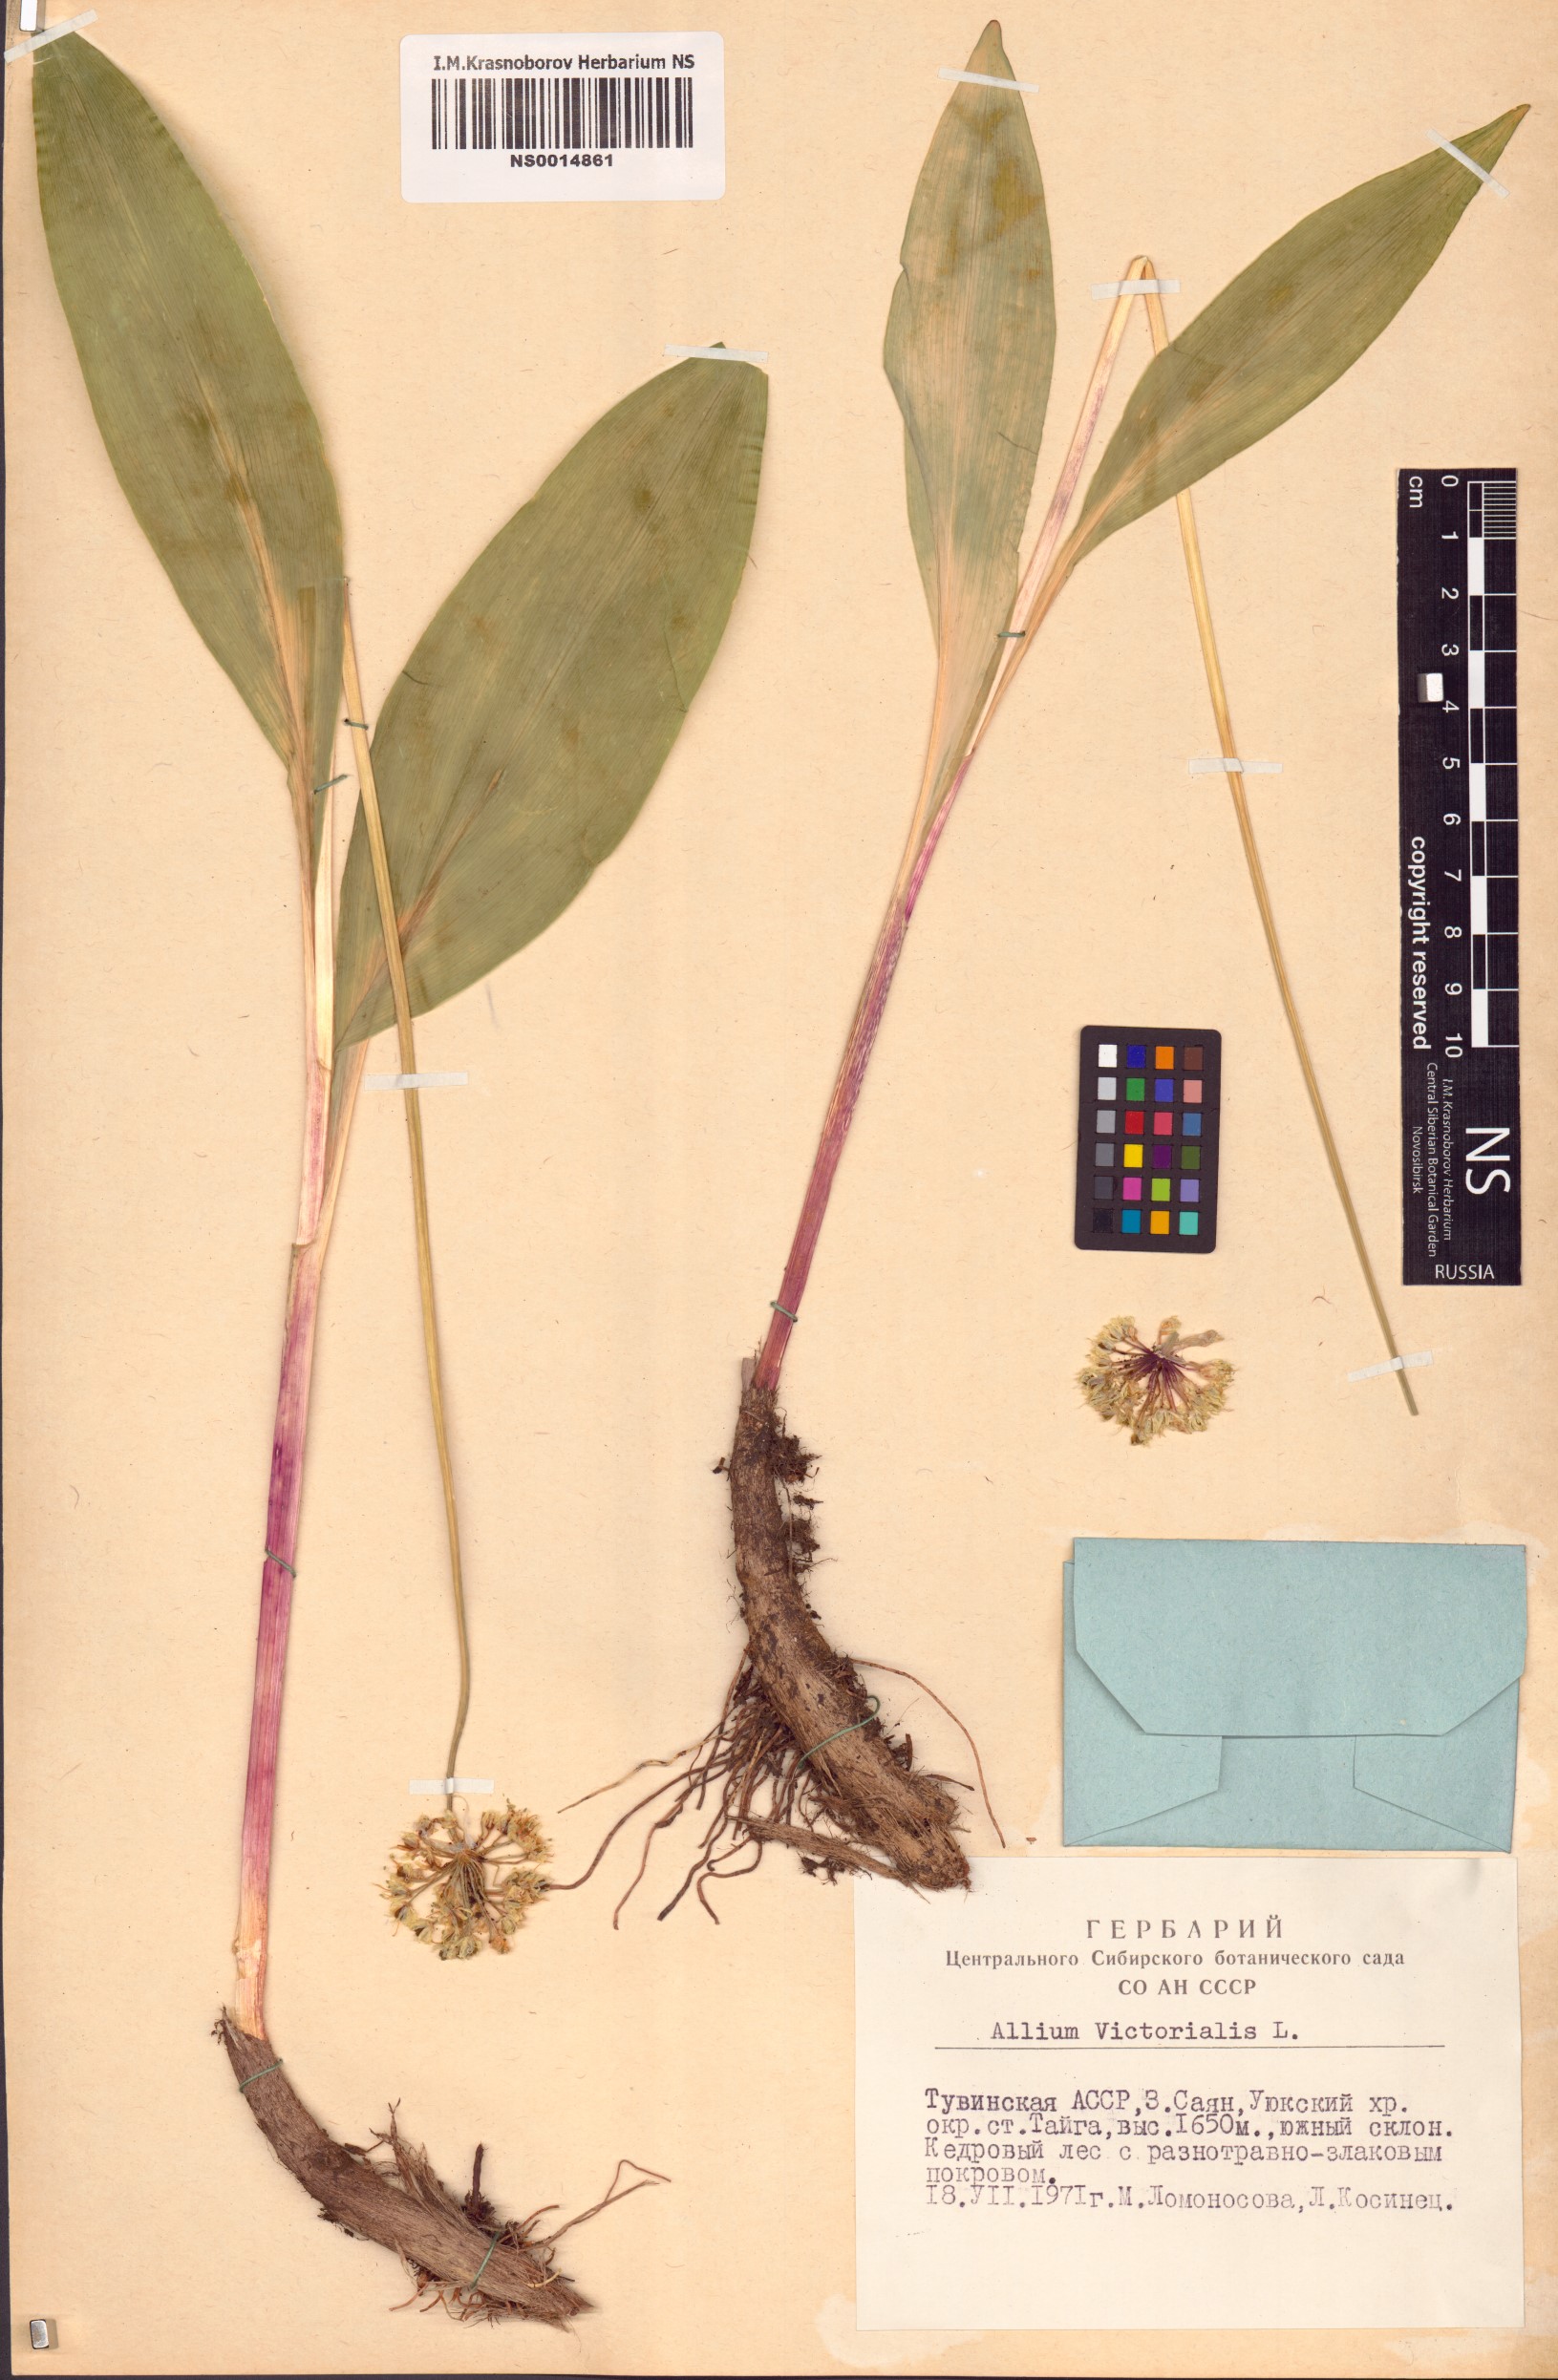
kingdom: Plantae
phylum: Tracheophyta
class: Liliopsida
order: Asparagales
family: Amaryllidaceae
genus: Allium
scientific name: Allium victorialis
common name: Alpine leek
